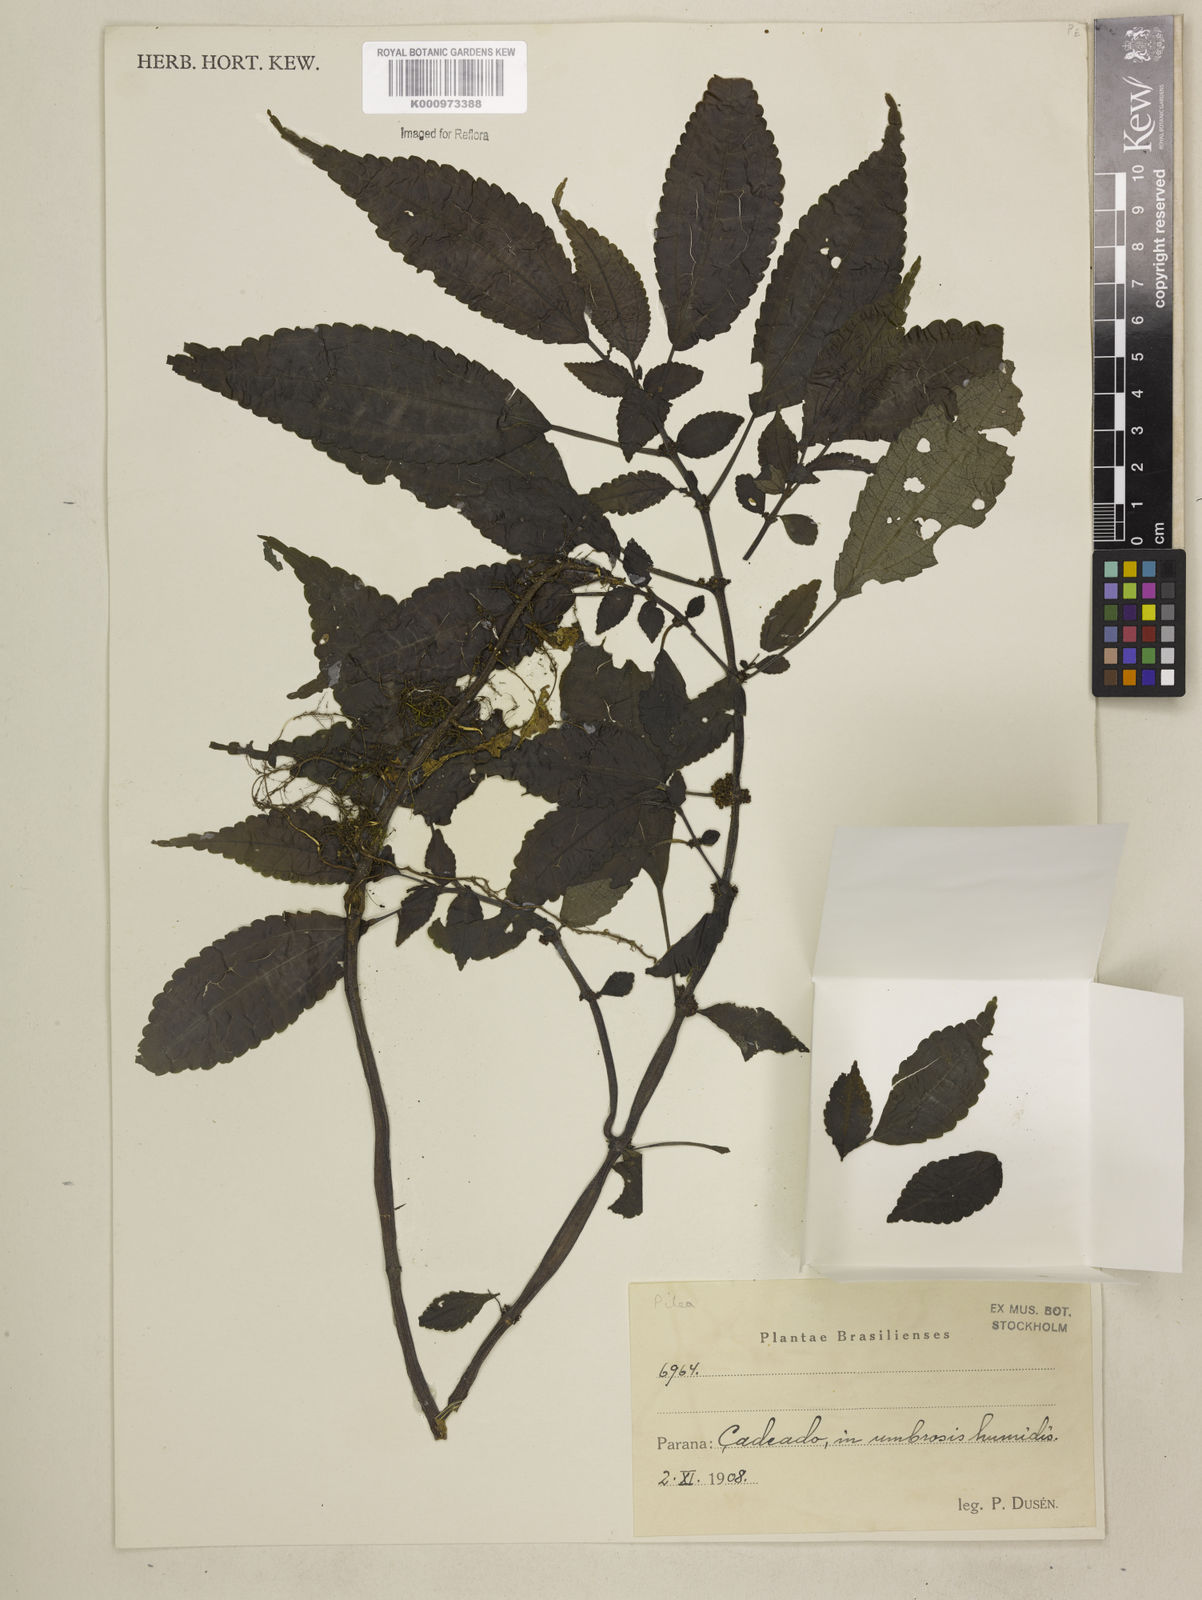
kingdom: Plantae
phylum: Tracheophyta
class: Magnoliopsida
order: Rosales
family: Urticaceae
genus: Pilea
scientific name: Pilea
